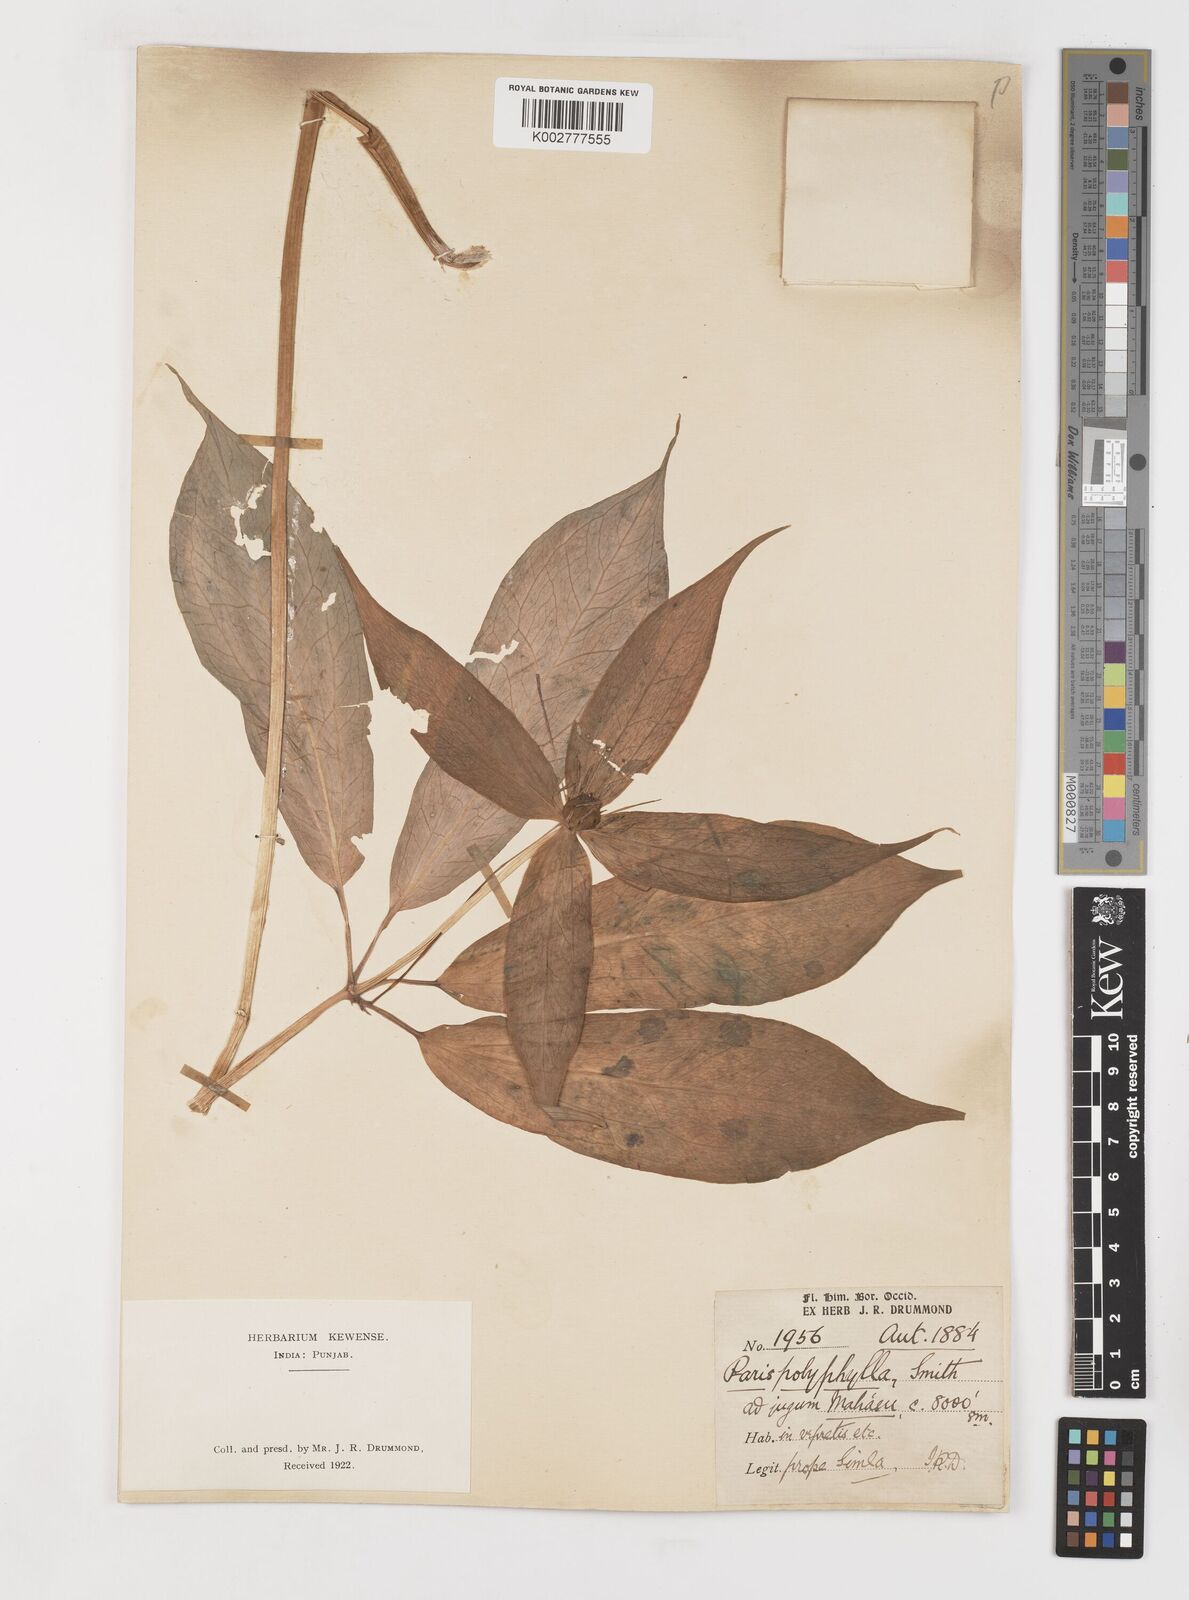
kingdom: Plantae
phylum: Tracheophyta
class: Liliopsida
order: Liliales
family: Melanthiaceae
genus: Paris
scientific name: Paris polyphylla
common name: Love apple
